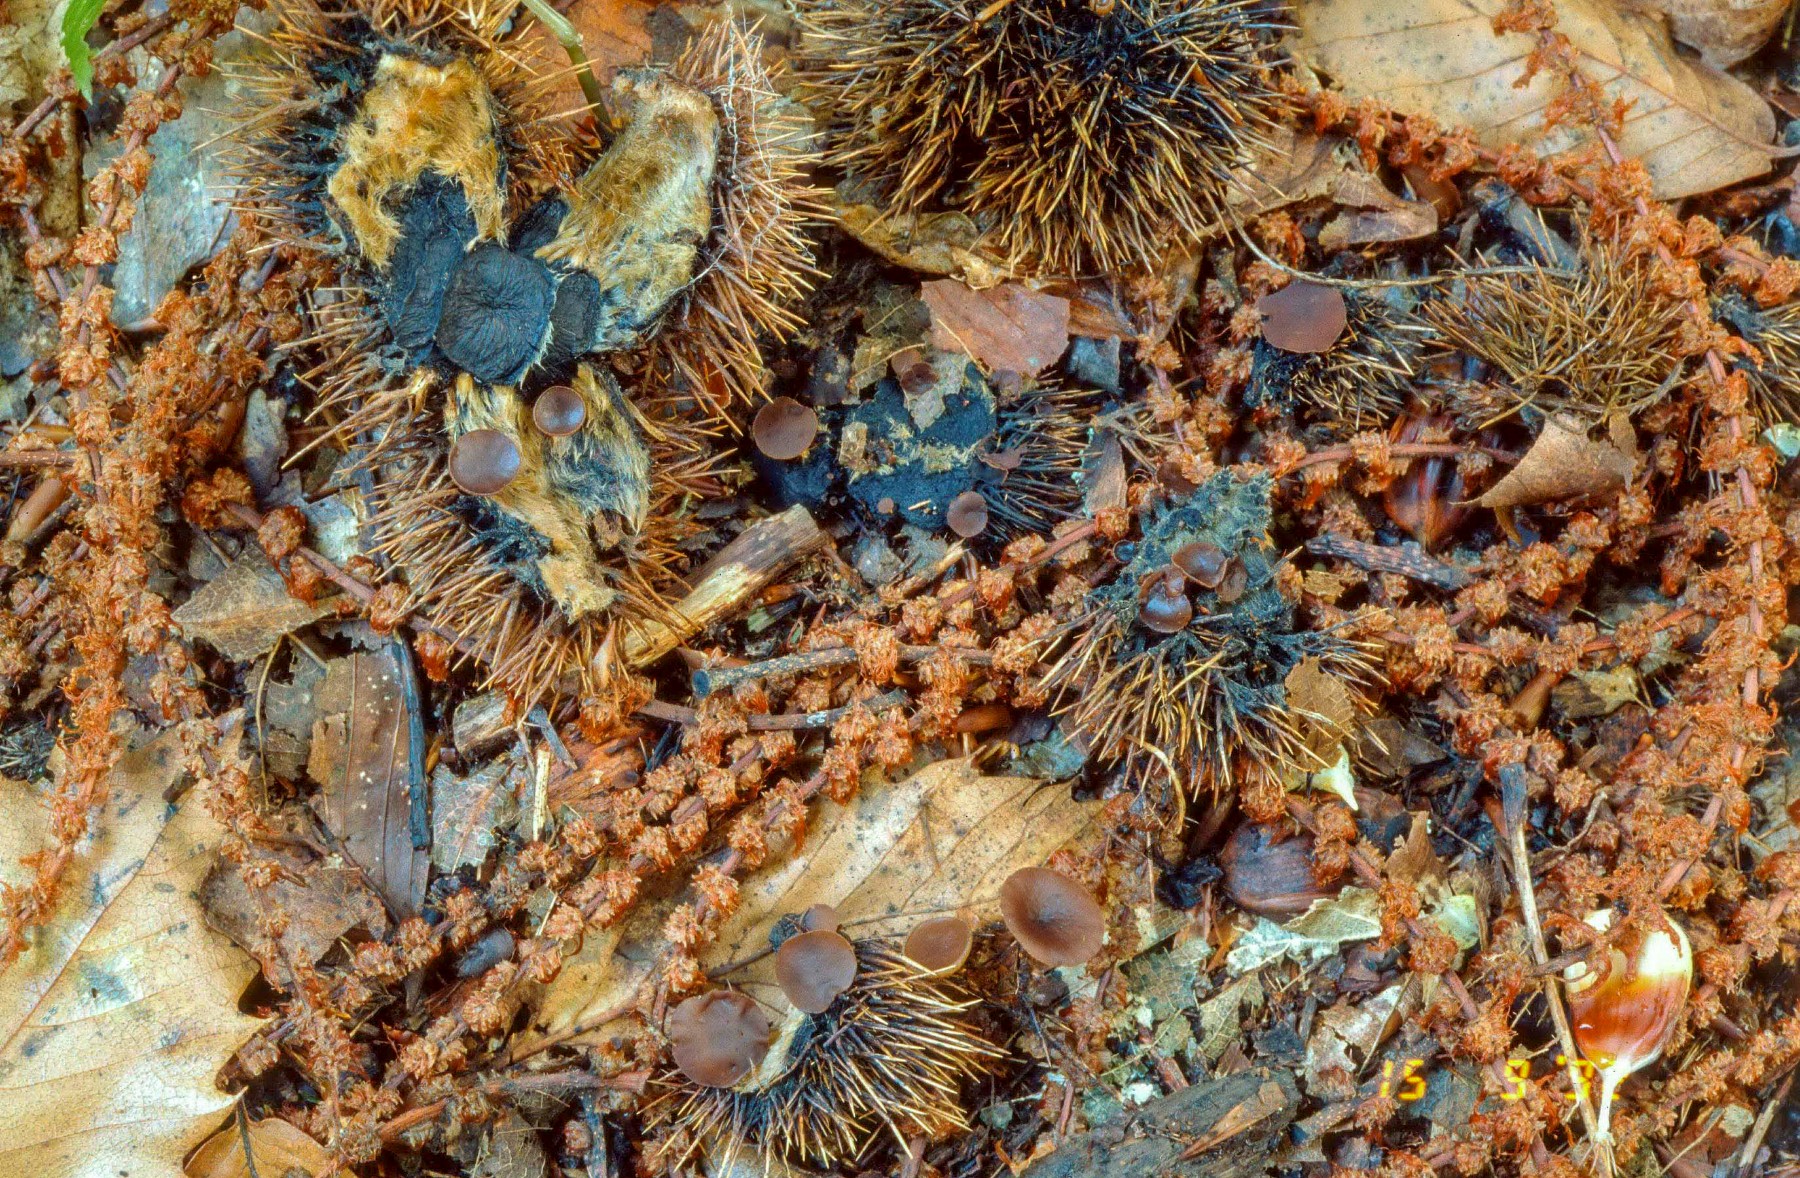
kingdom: Fungi
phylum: Ascomycota
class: Leotiomycetes
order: Helotiales
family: Rutstroemiaceae
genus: Lanzia
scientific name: Lanzia echinophila
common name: kastanie-brunskive
